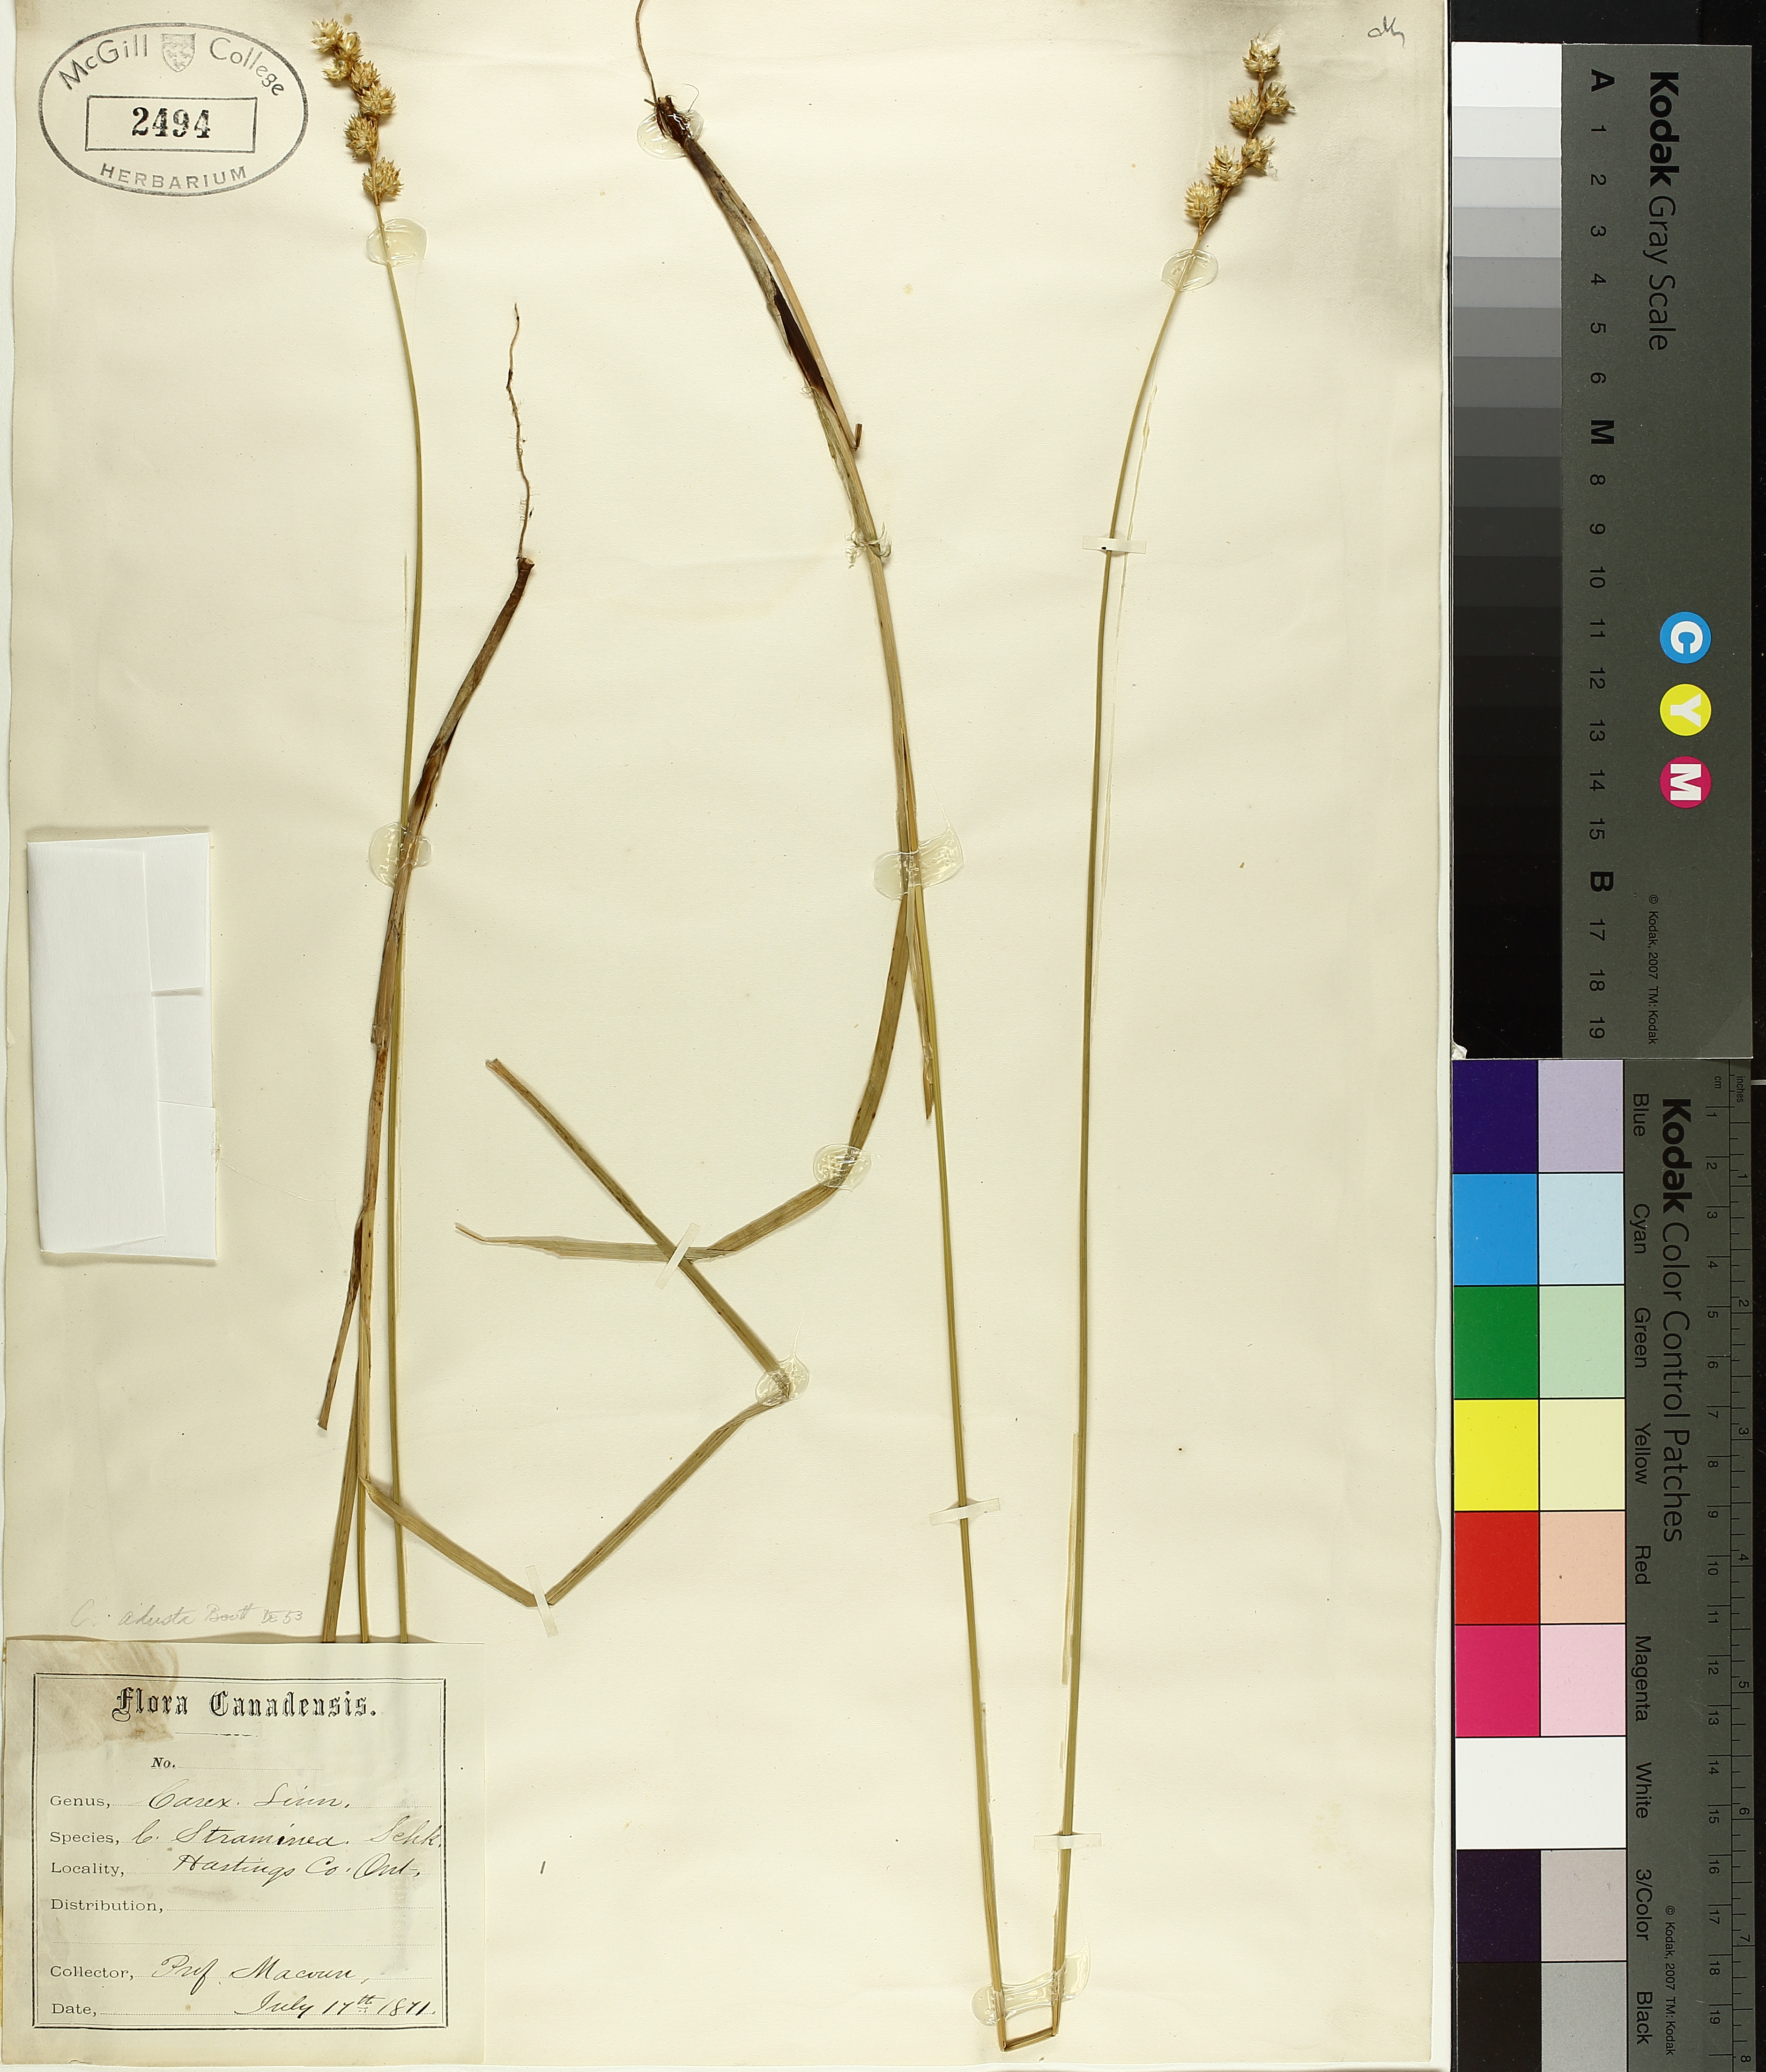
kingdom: Plantae
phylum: Tracheophyta
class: Liliopsida
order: Poales
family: Cyperaceae
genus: Carex
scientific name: Carex adusta
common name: Browned sedge
